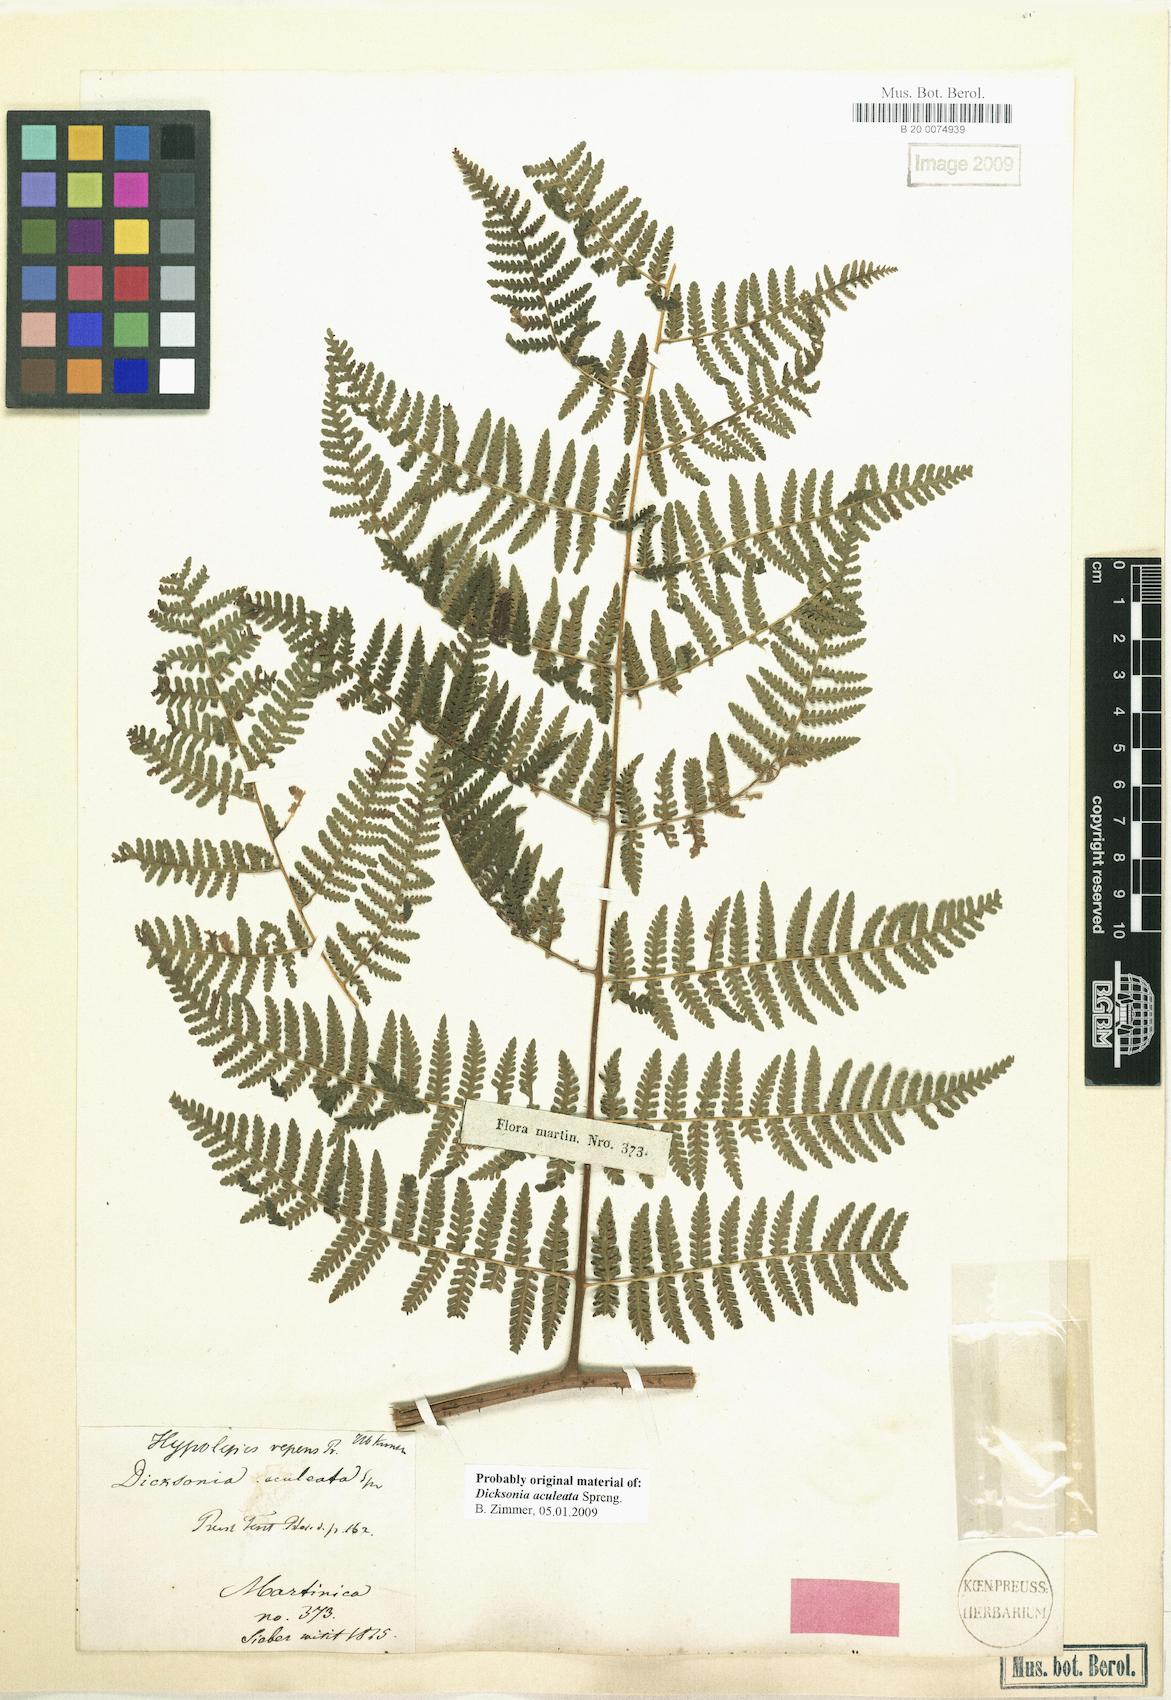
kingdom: Plantae
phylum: Tracheophyta
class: Polypodiopsida
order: Polypodiales
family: Dennstaedtiaceae
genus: Hypolepis
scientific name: Hypolepis repens
